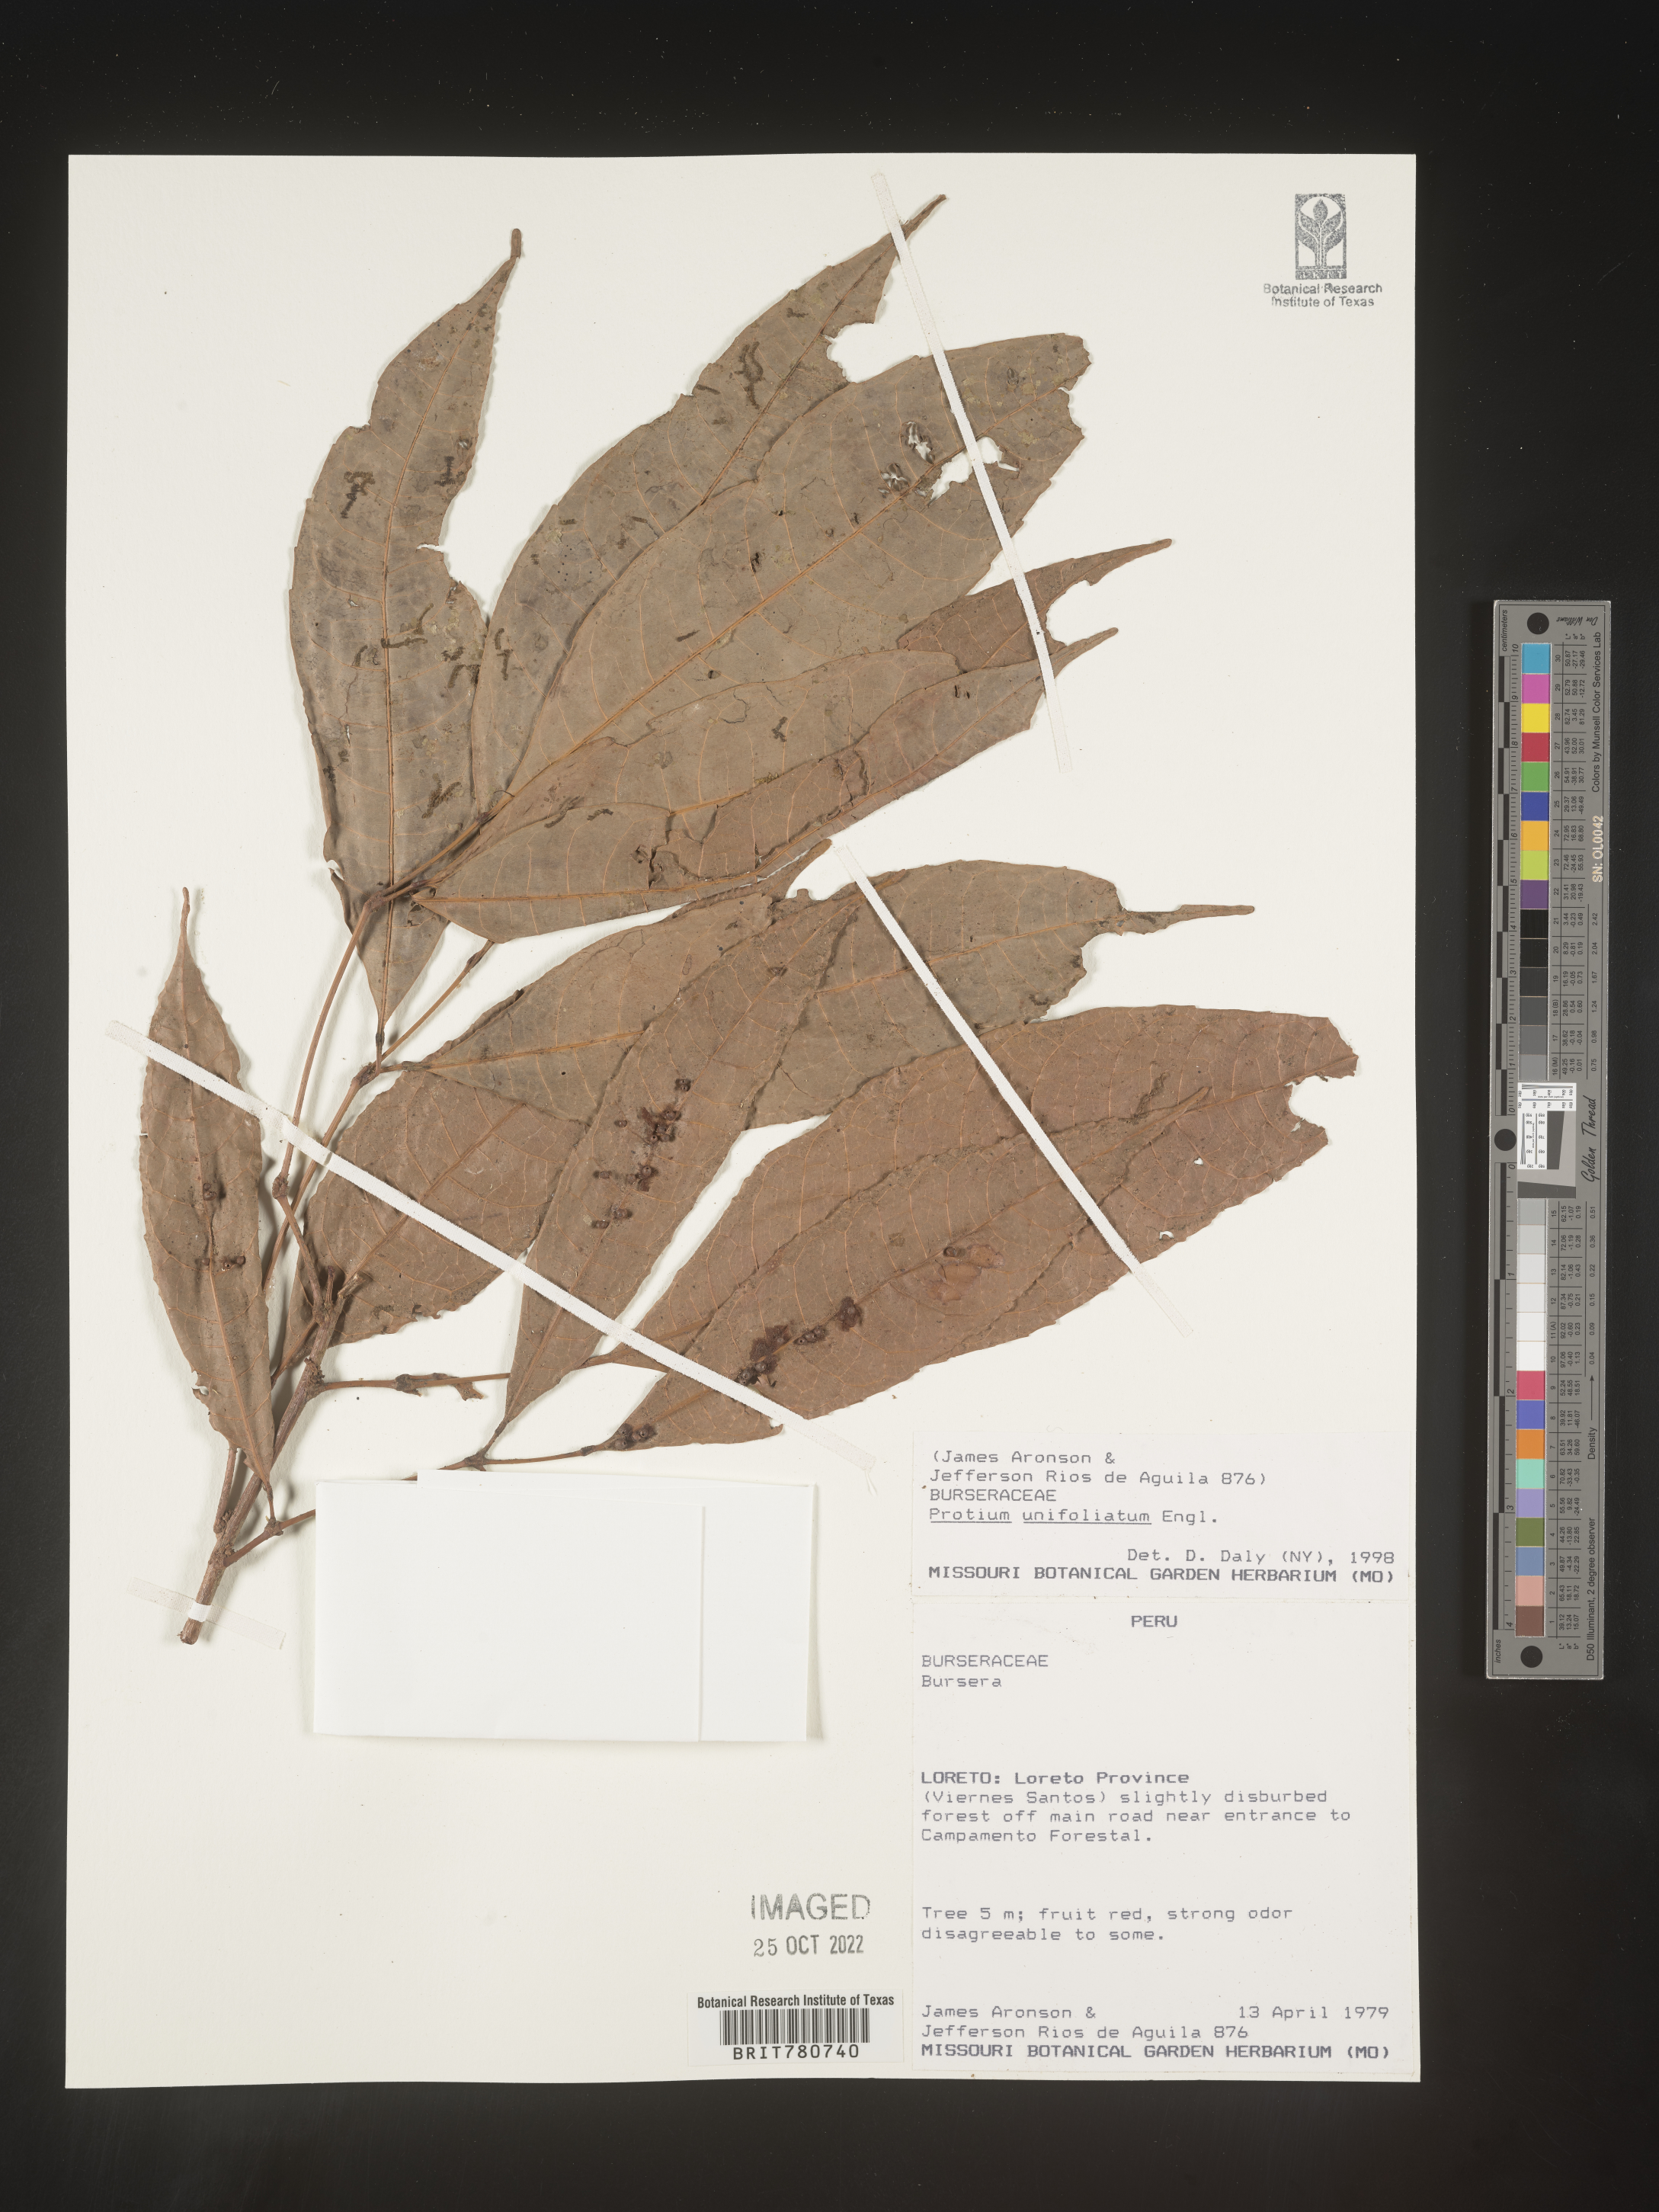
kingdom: Plantae
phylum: Tracheophyta
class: Magnoliopsida
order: Sapindales
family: Burseraceae
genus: Protium
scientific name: Protium
